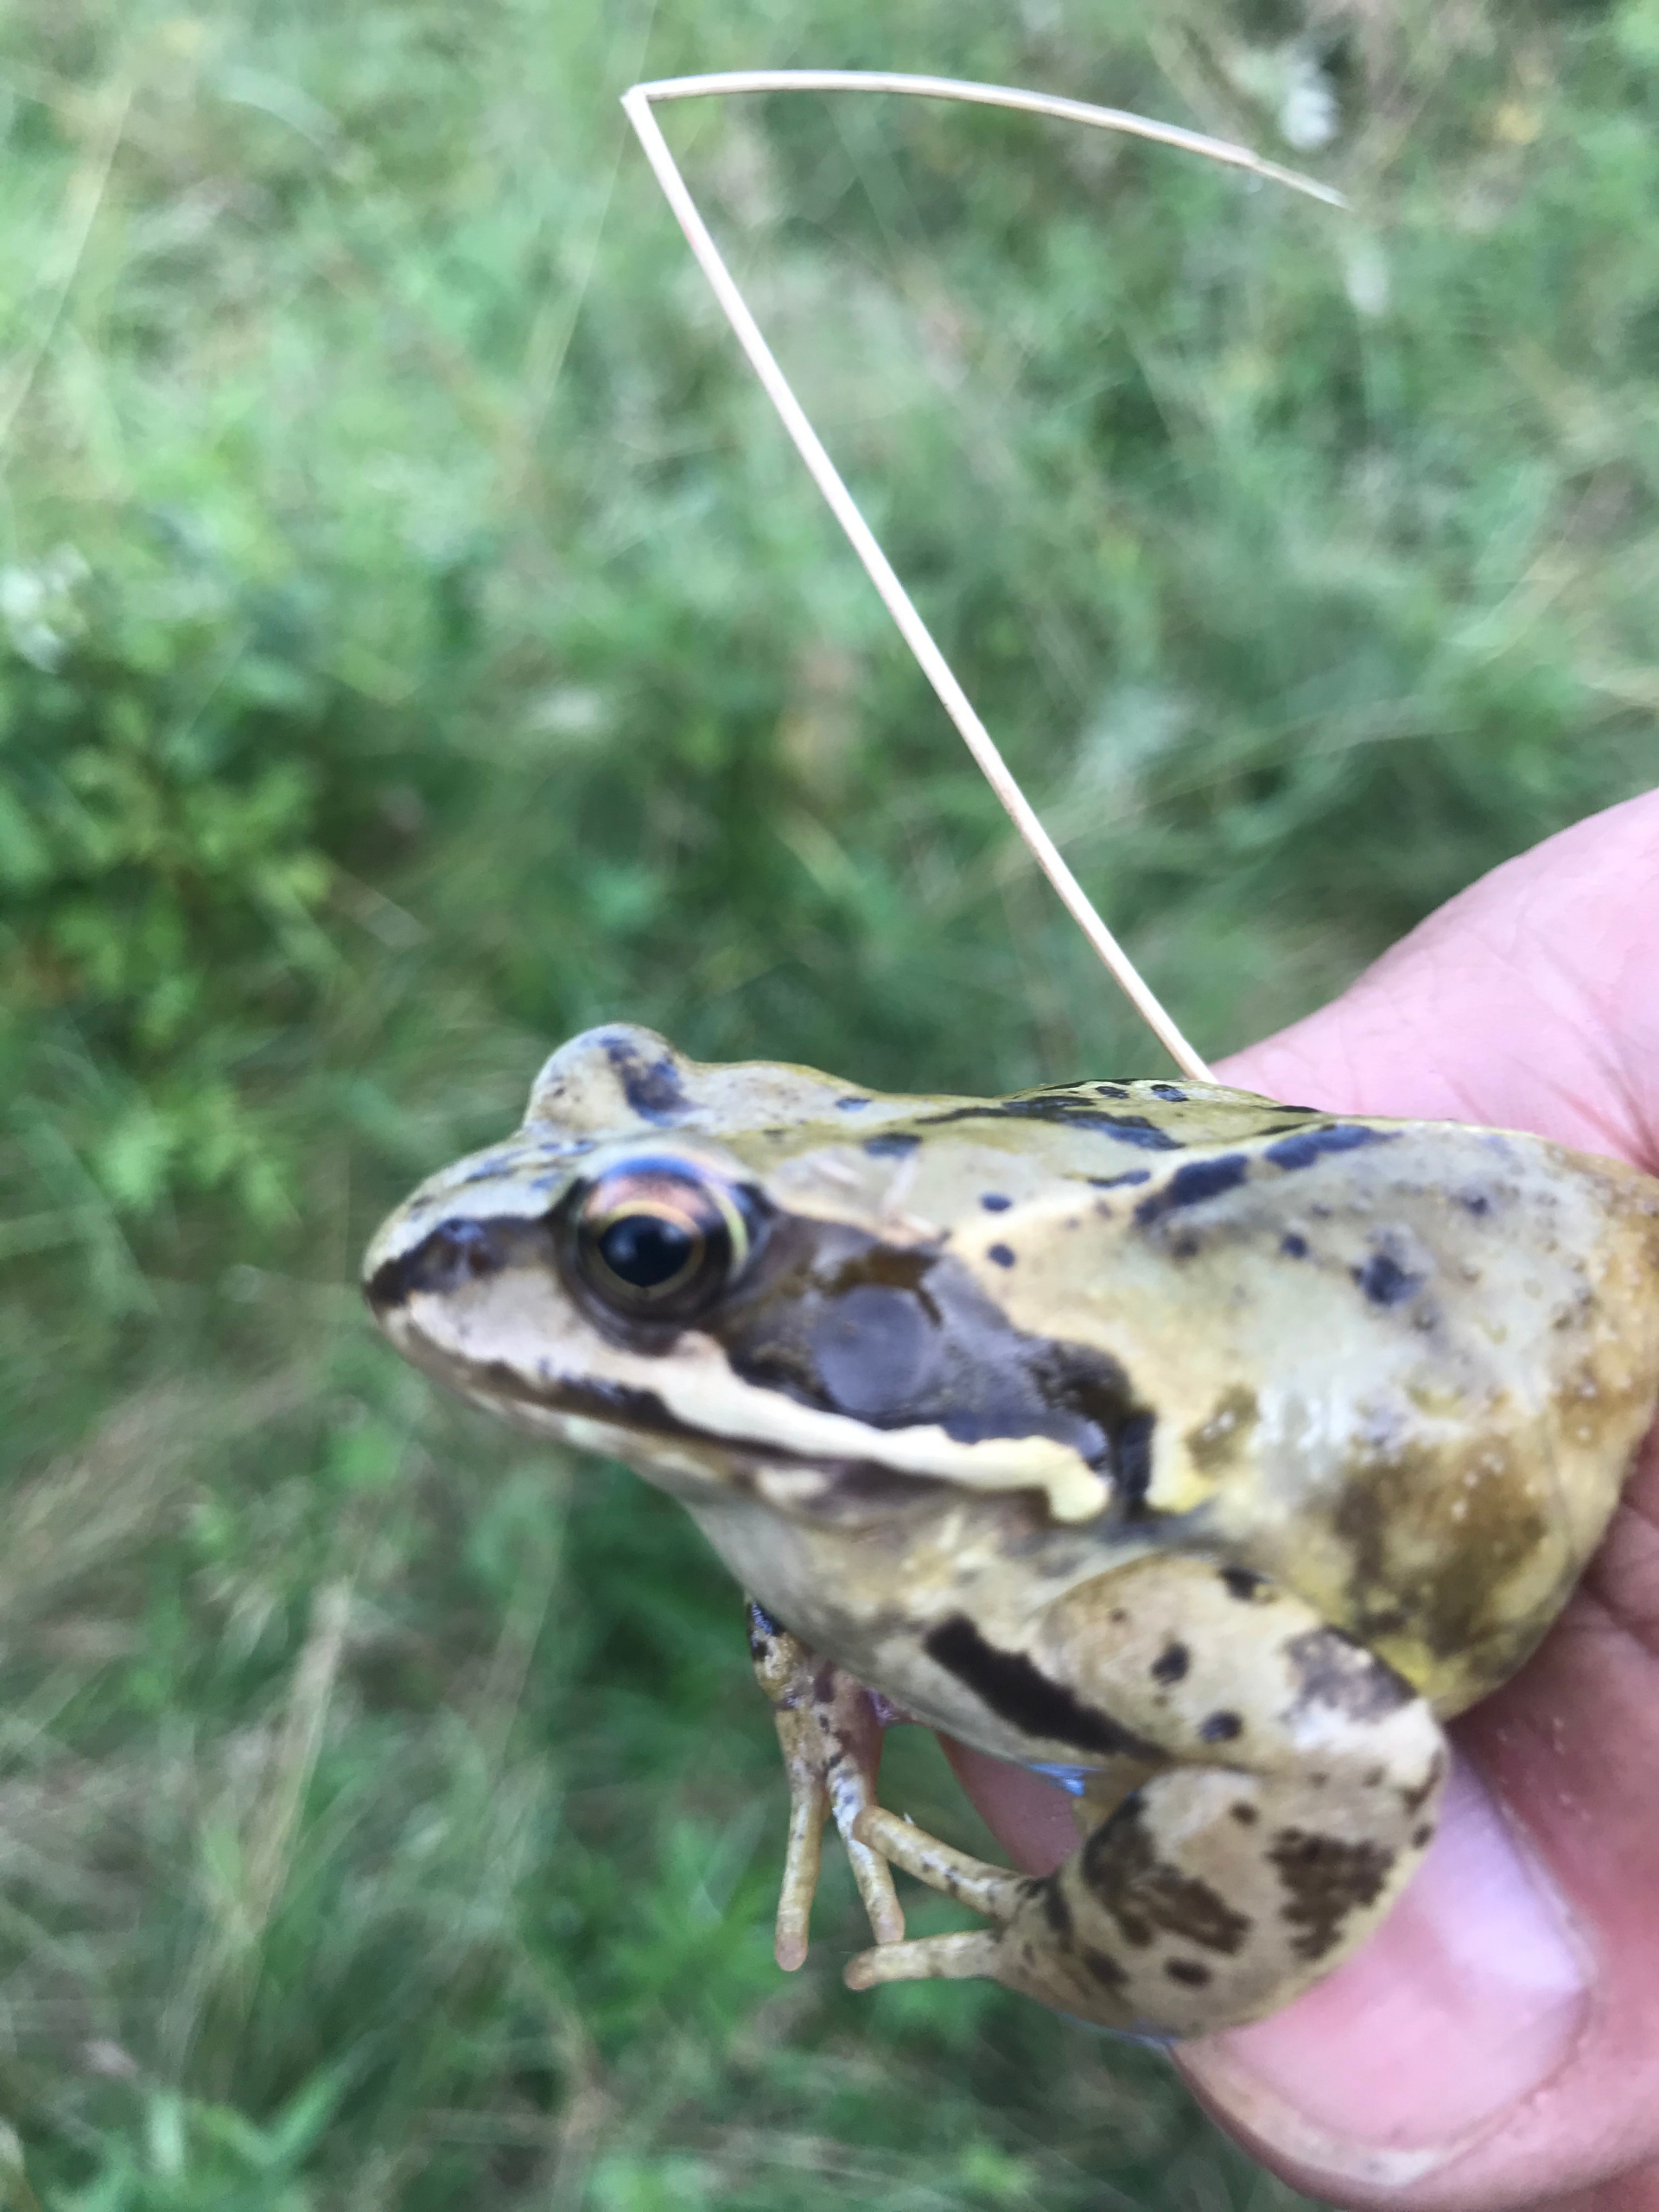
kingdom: Animalia
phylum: Chordata
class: Amphibia
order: Anura
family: Ranidae
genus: Rana
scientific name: Rana temporaria
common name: Butsnudet frø
